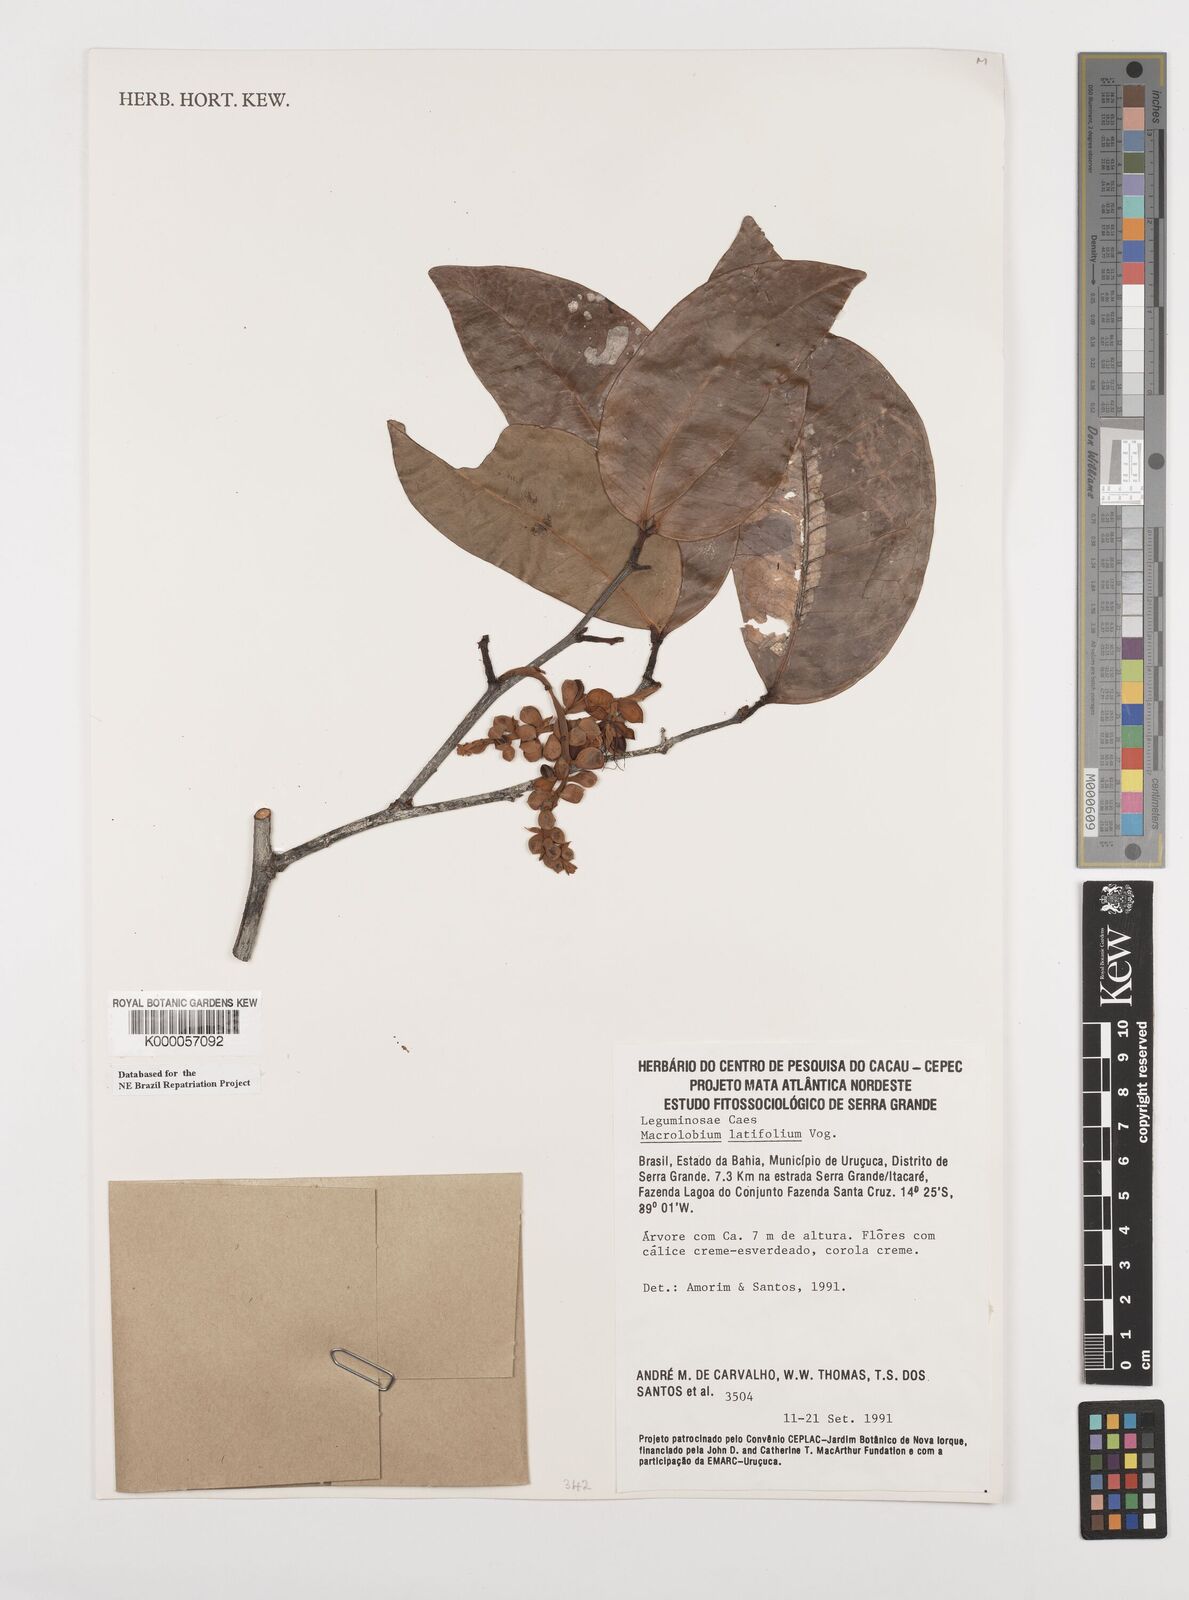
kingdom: Plantae
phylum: Tracheophyta
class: Magnoliopsida
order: Fabales
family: Fabaceae
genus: Macrolobium
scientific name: Macrolobium latifolium
